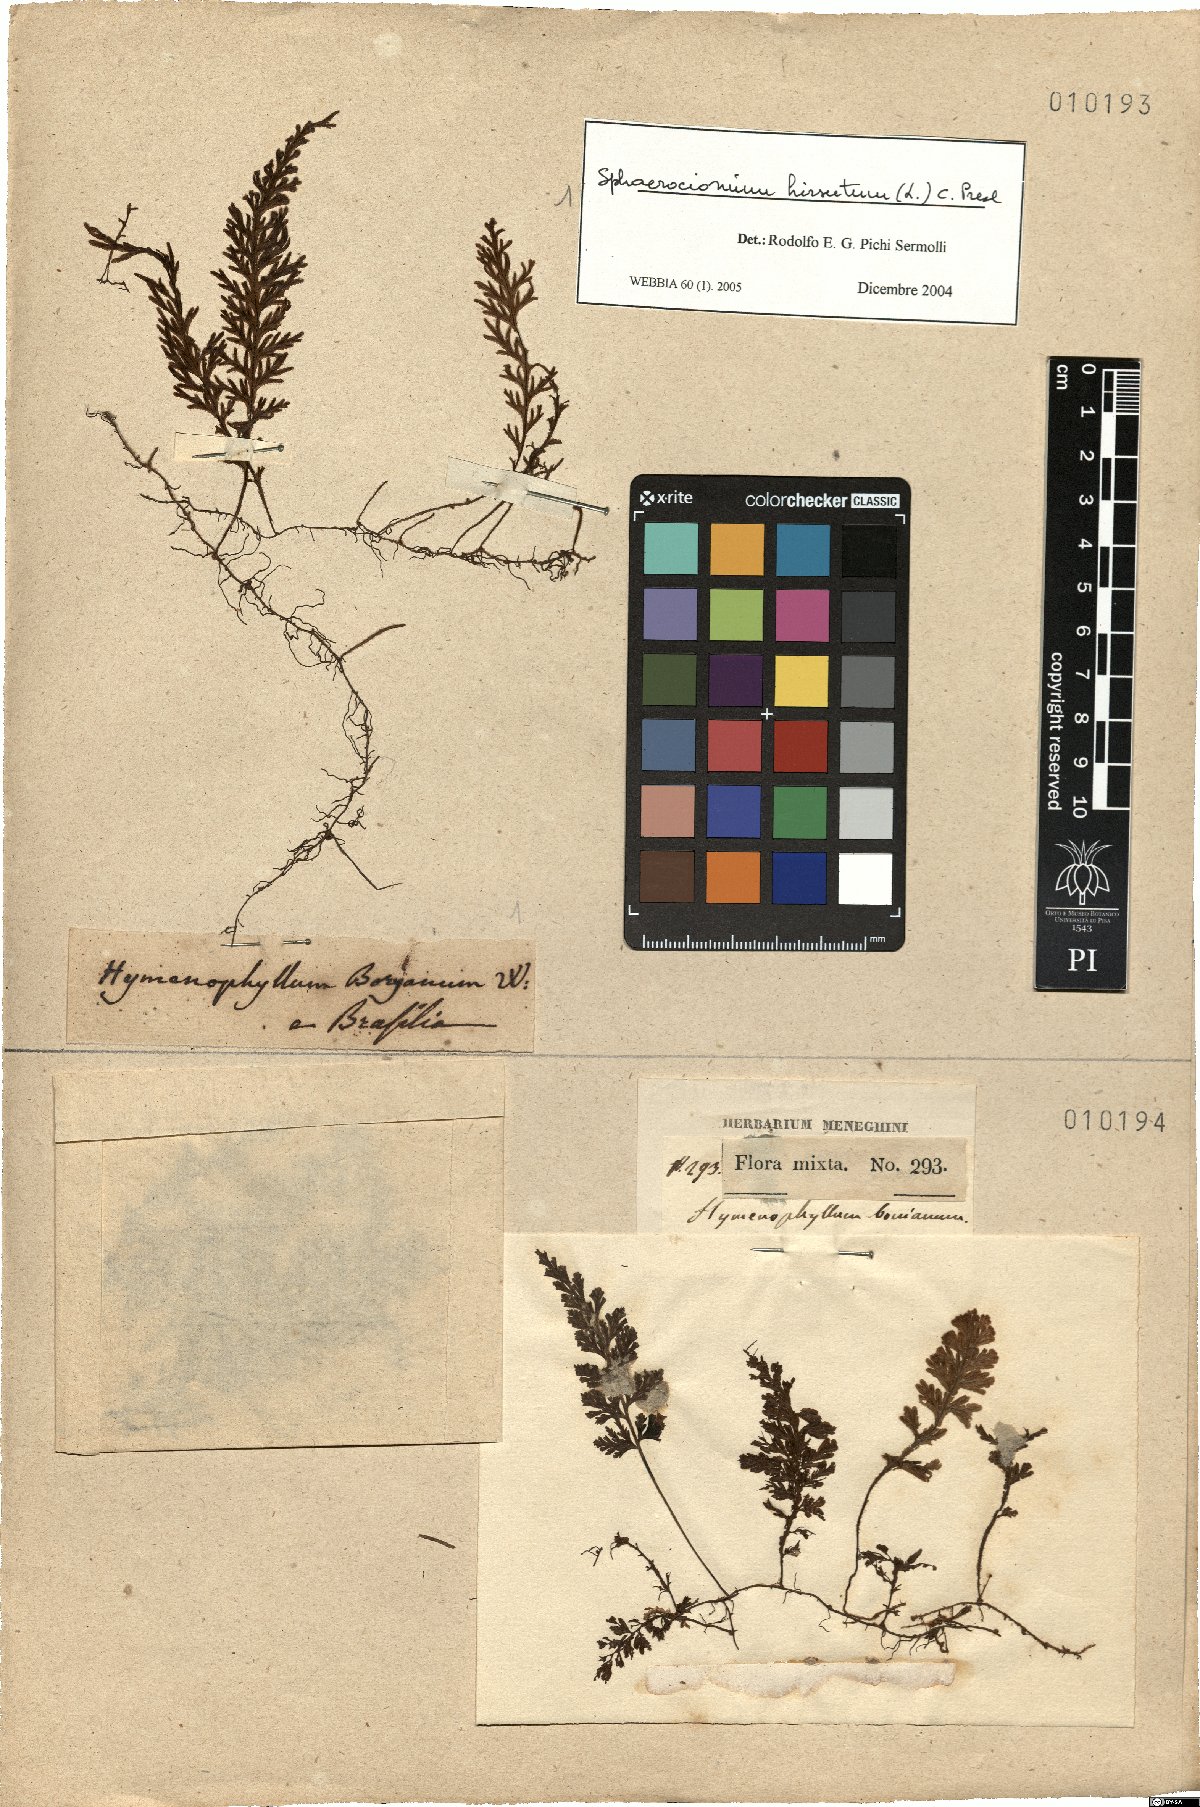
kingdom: Plantae
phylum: Tracheophyta
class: Polypodiopsida
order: Hymenophyllales
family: Hymenophyllaceae
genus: Hymenophyllum
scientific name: Hymenophyllum hirsutum
